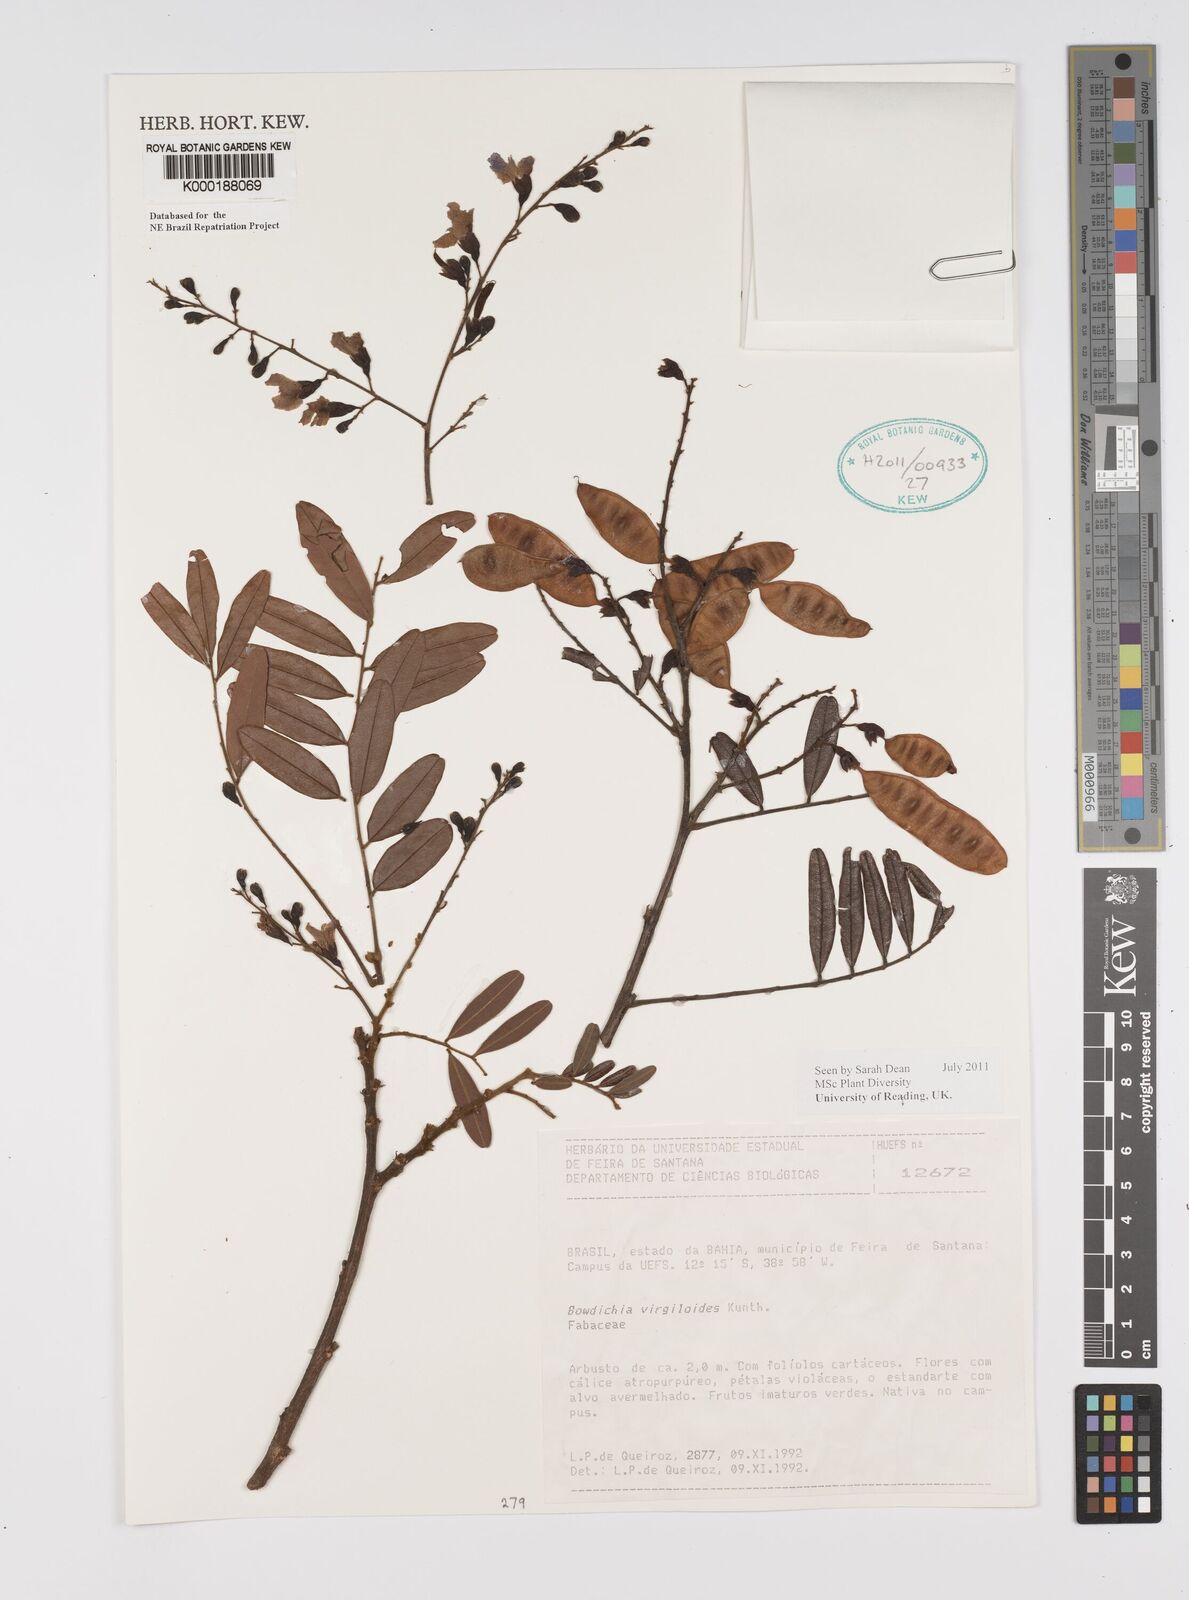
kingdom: Plantae
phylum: Tracheophyta
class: Magnoliopsida
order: Fabales
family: Fabaceae
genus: Bowdichia
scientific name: Bowdichia virgilioides
